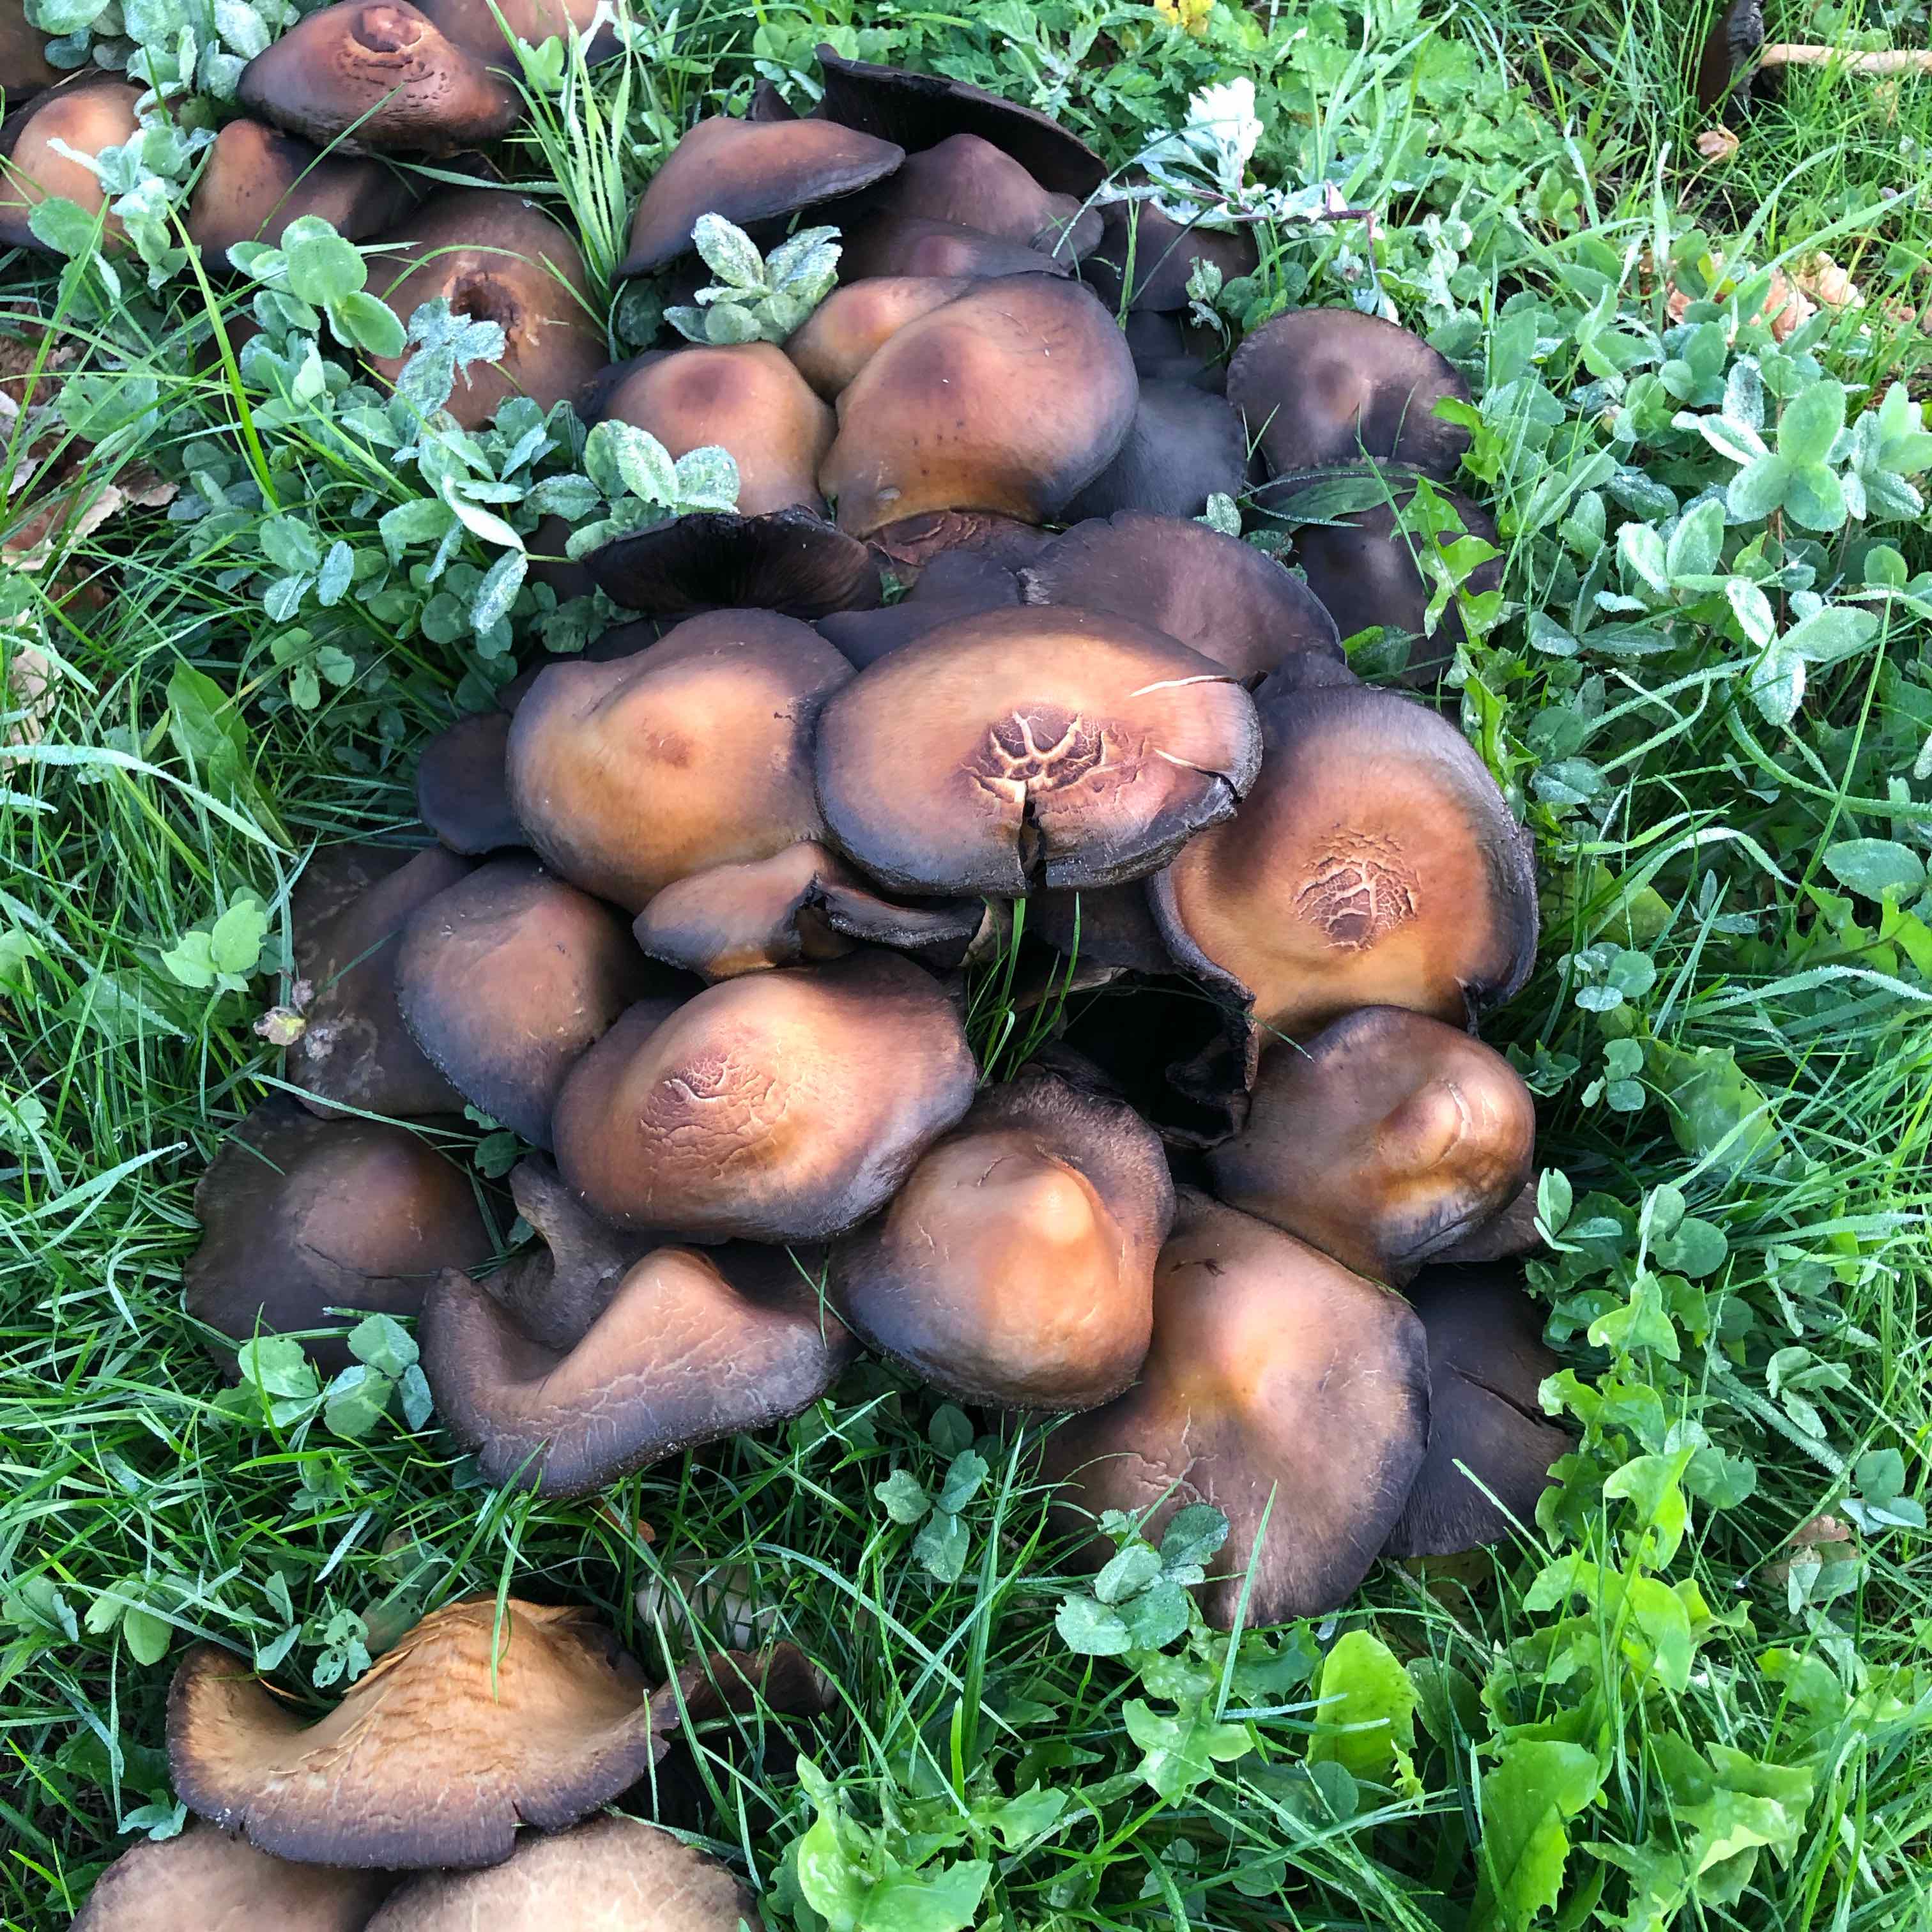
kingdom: Fungi
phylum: Basidiomycota
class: Agaricomycetes
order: Agaricales
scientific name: Agaricales
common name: champignonordenen
